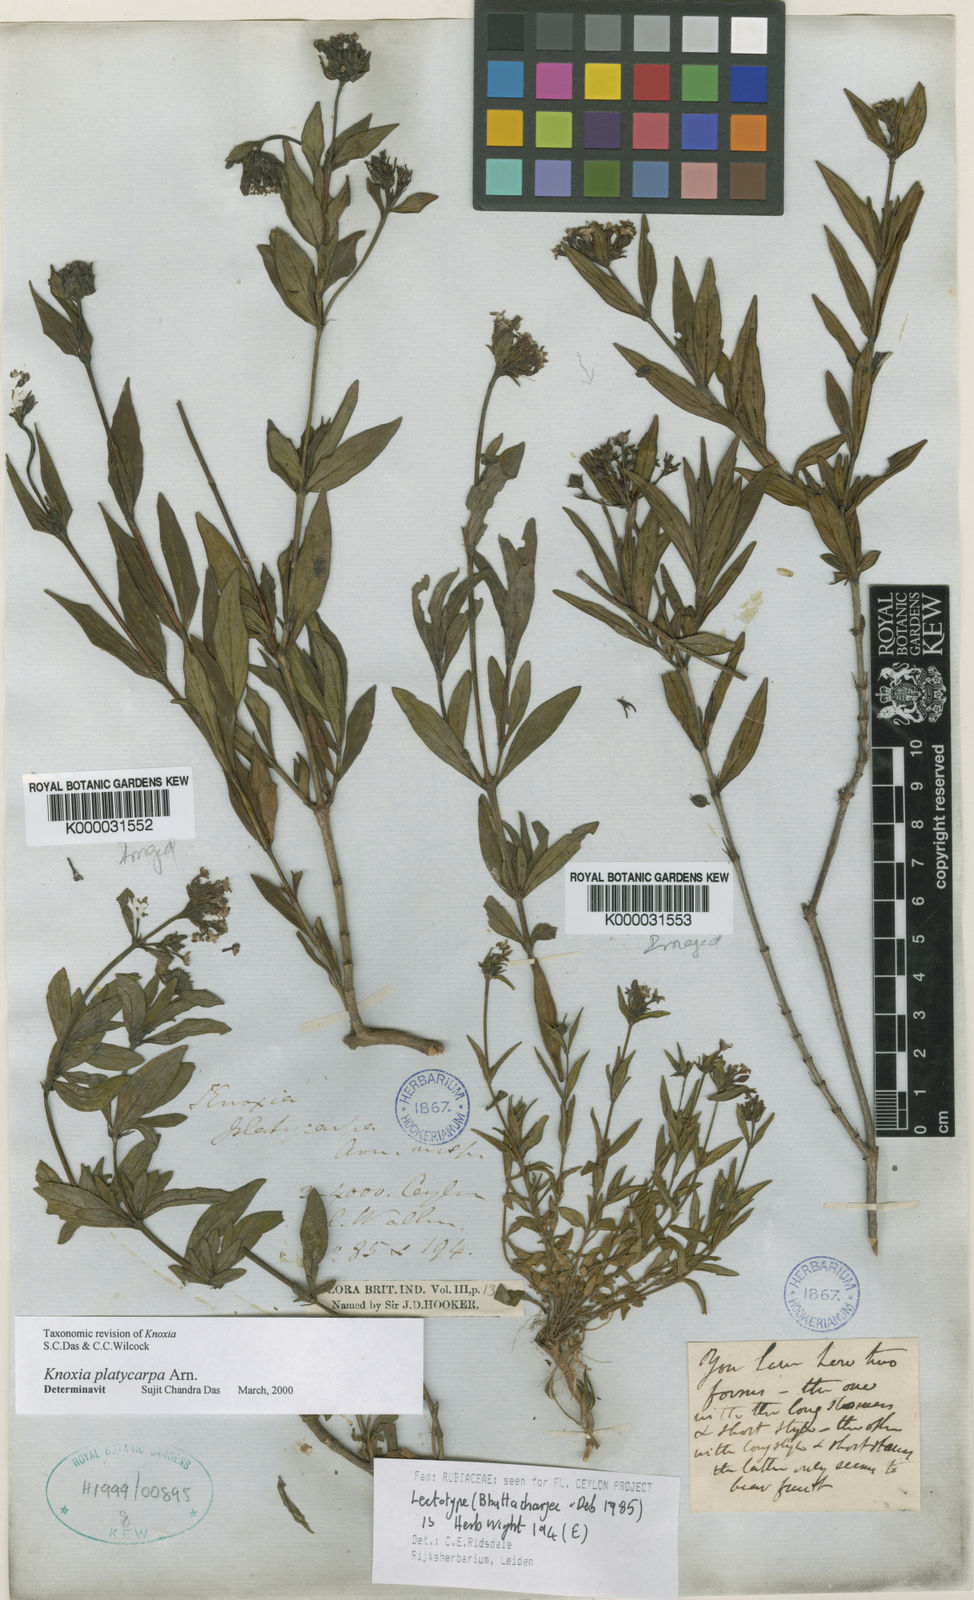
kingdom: Plantae
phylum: Tracheophyta
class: Magnoliopsida
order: Gentianales
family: Rubiaceae
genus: Knoxia
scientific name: Knoxia platycarpa
